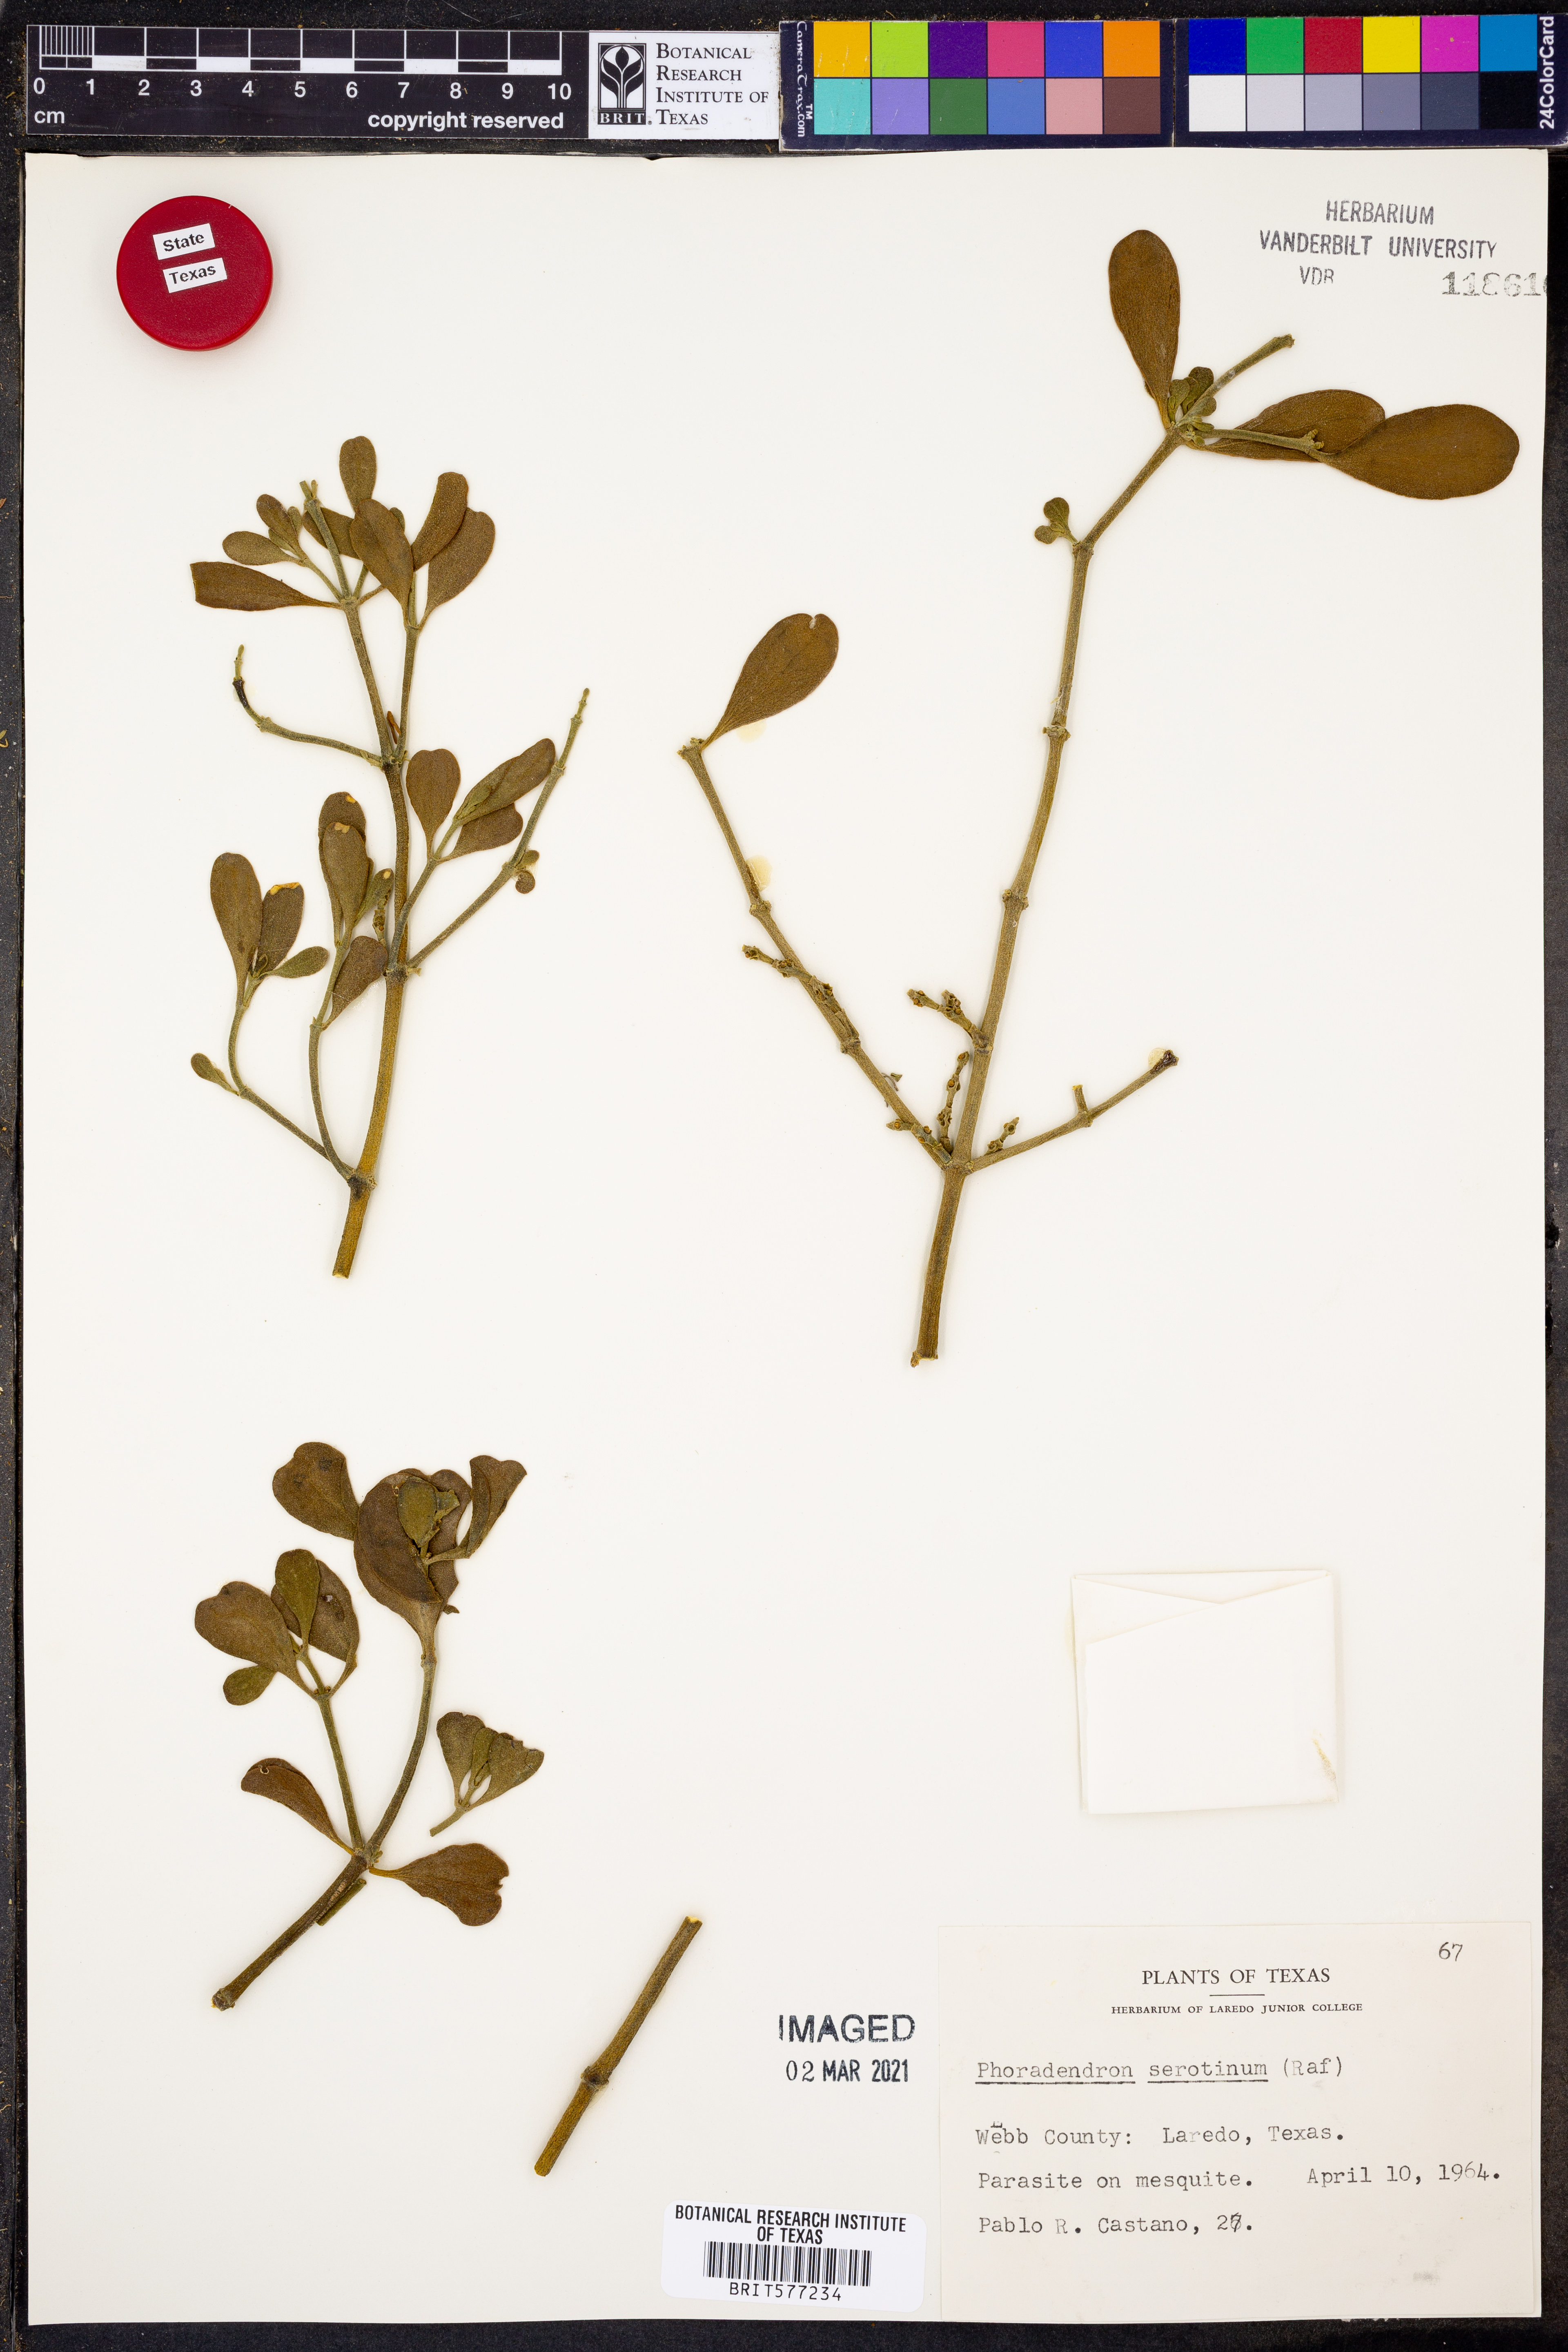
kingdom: Plantae
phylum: Tracheophyta
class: Magnoliopsida
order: Santalales
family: Viscaceae
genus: Phoradendron
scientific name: Phoradendron leucarpum
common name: Pacific mistletoe
